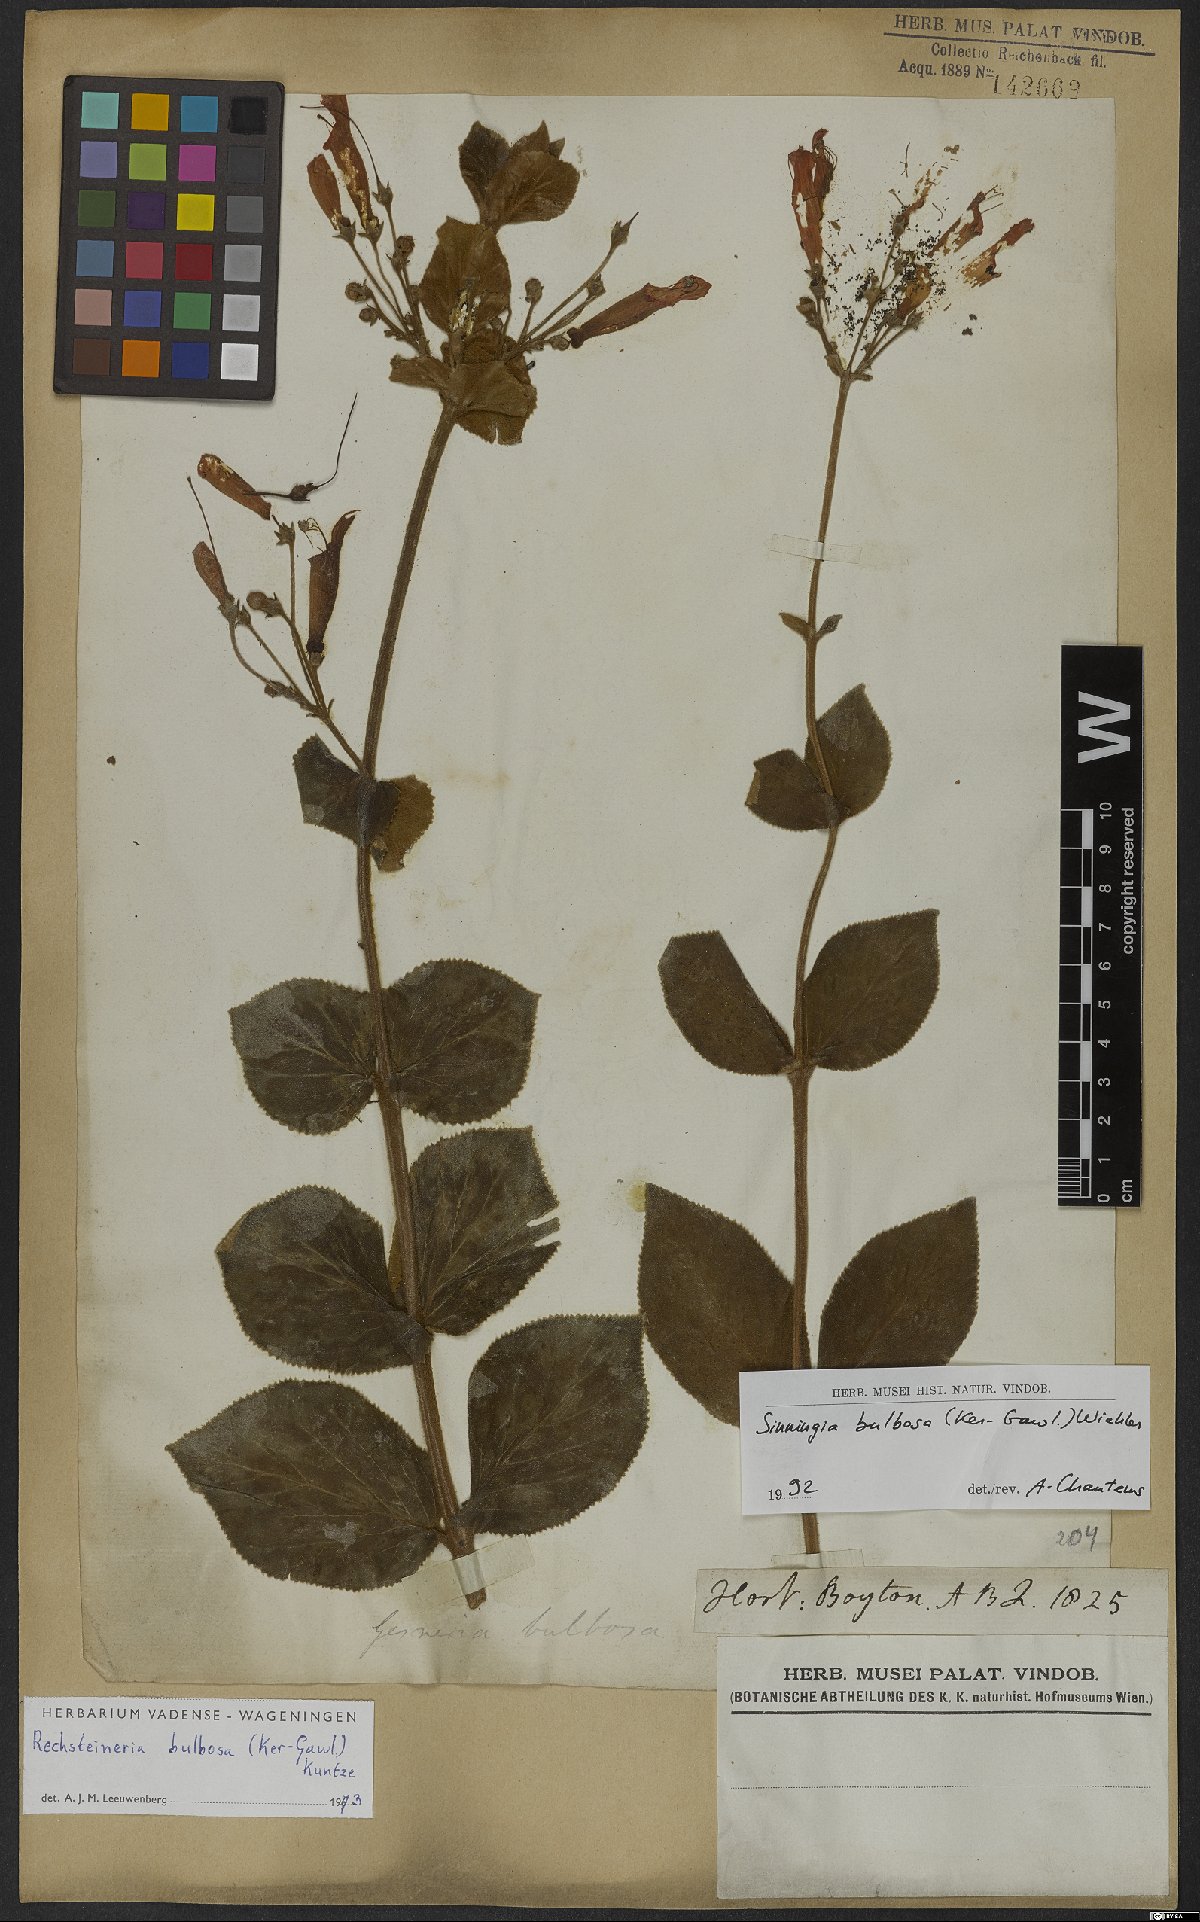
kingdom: Plantae
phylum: Tracheophyta
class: Magnoliopsida
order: Lamiales
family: Gesneriaceae
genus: Sinningia
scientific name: Sinningia bulbosa
